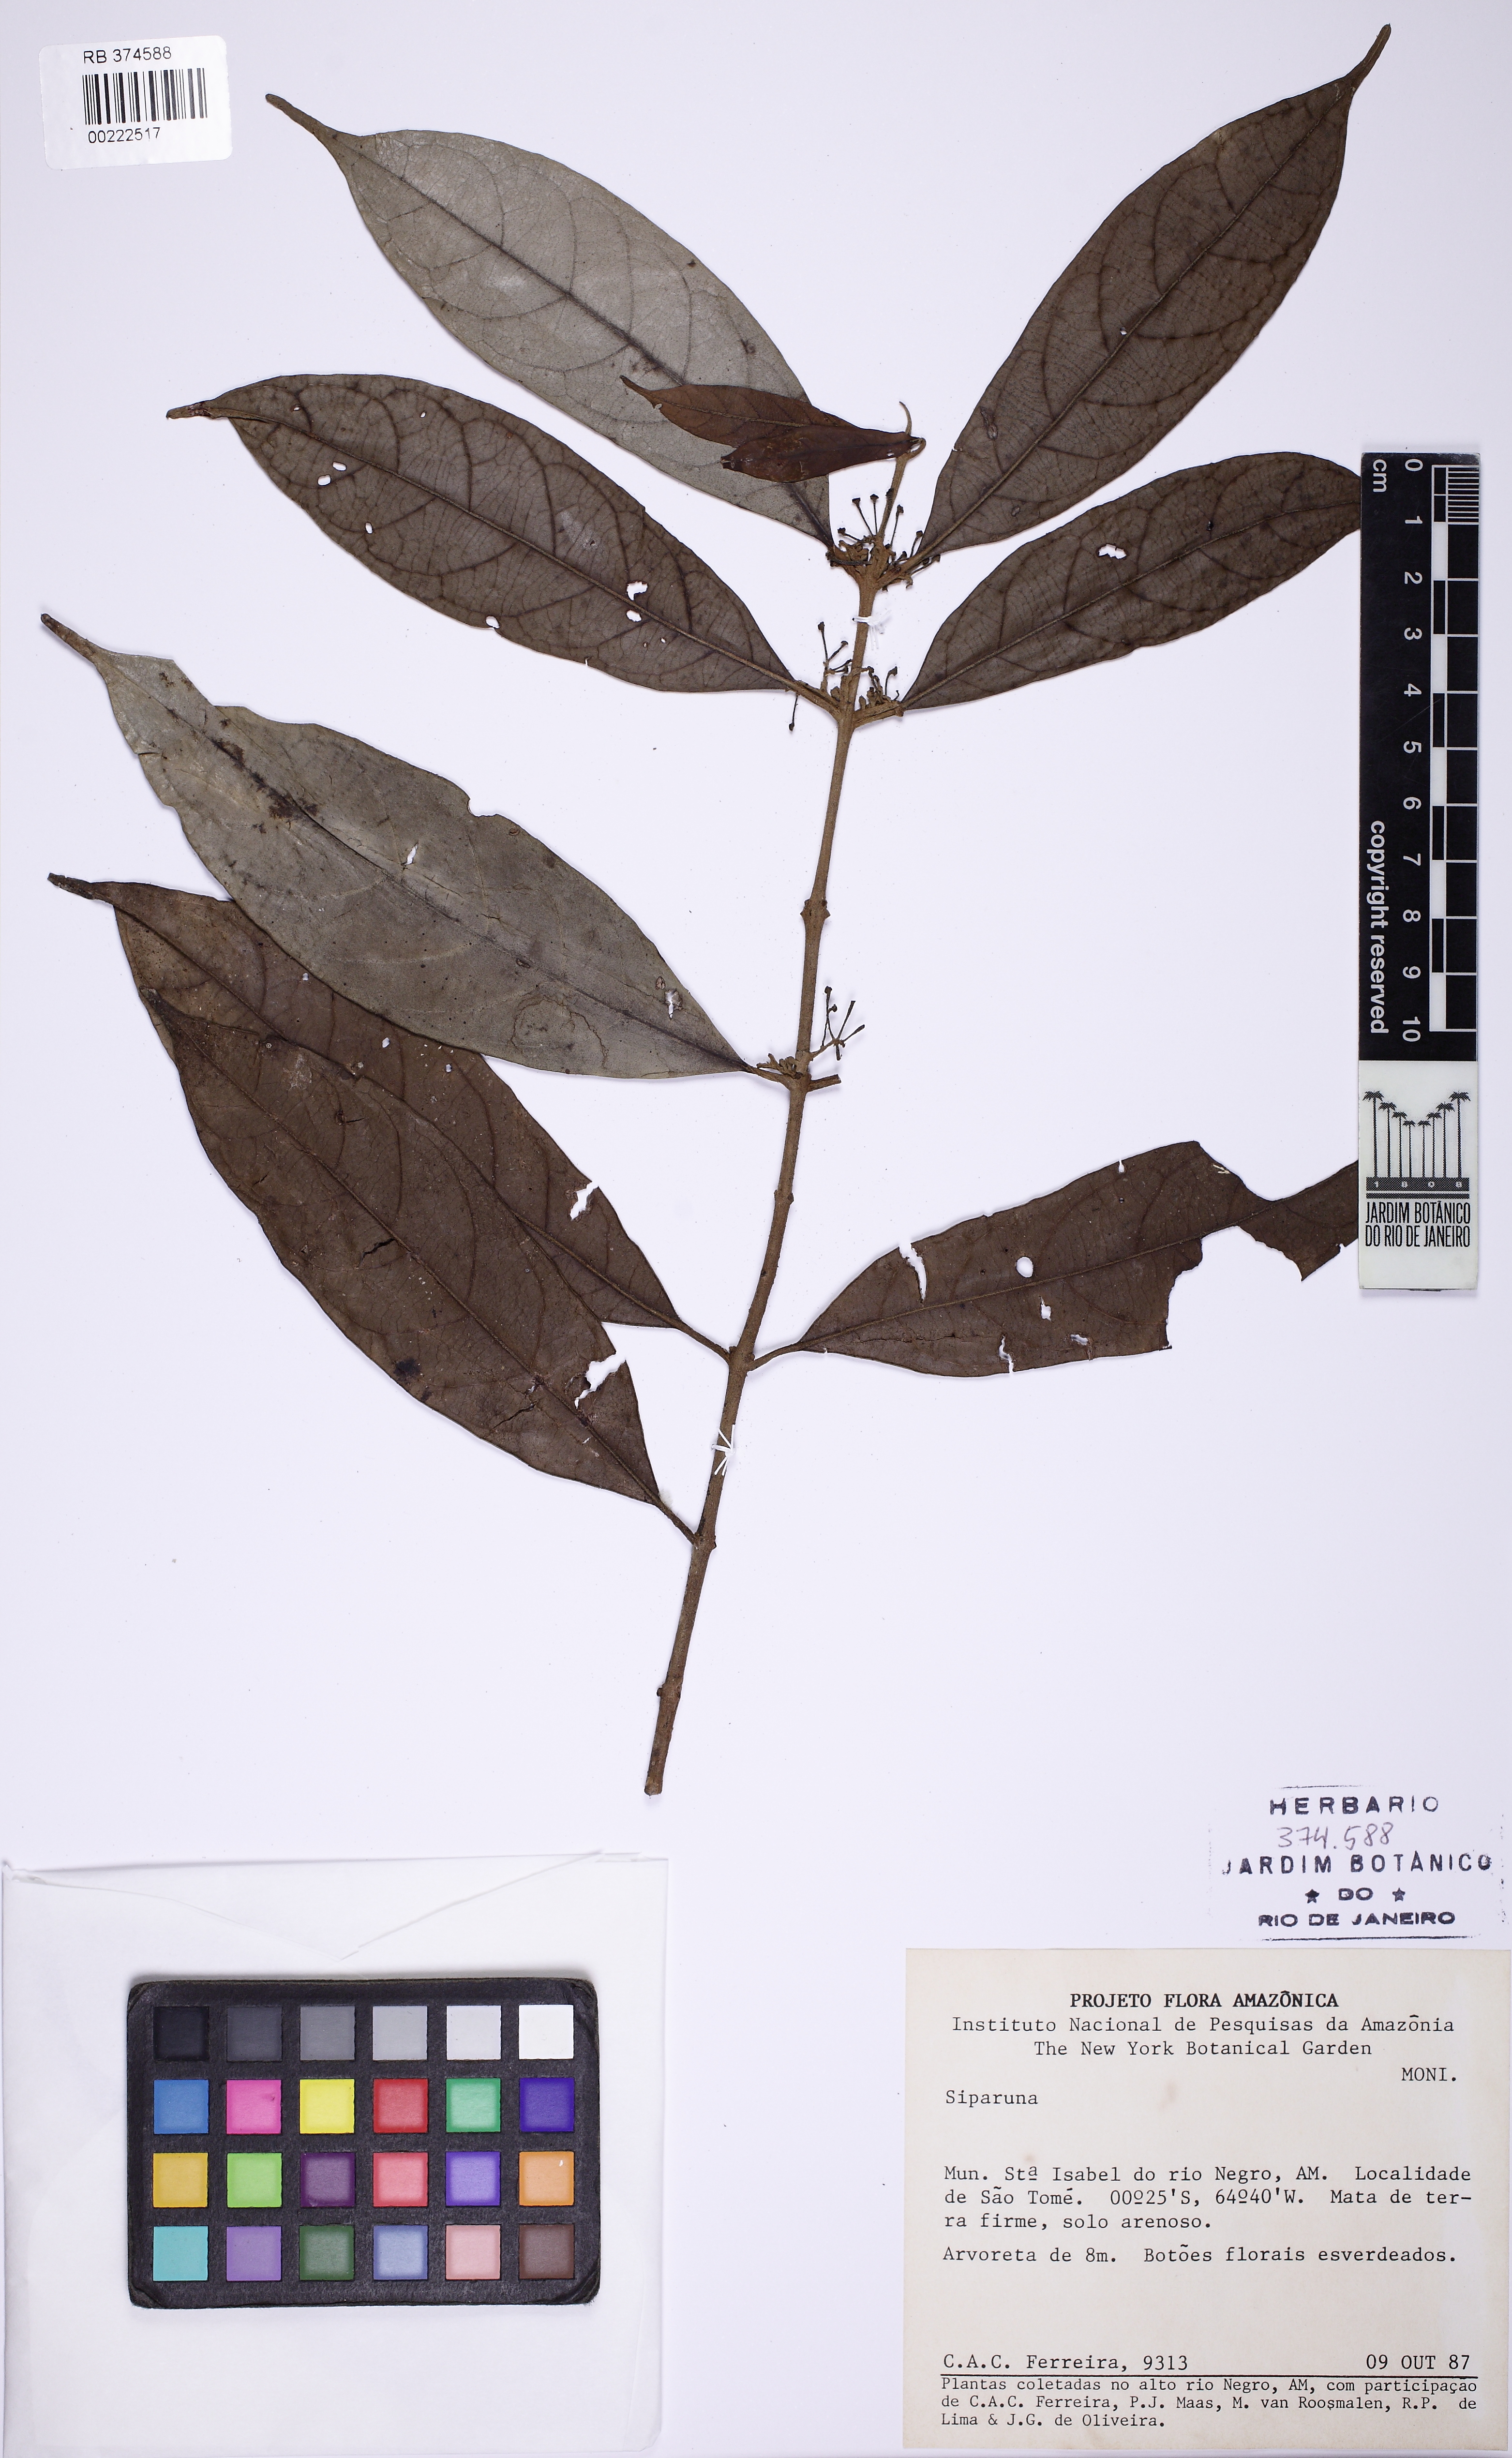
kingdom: Plantae
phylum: Tracheophyta
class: Magnoliopsida
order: Laurales
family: Siparunaceae
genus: Siparuna
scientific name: Siparuna cuspidata
